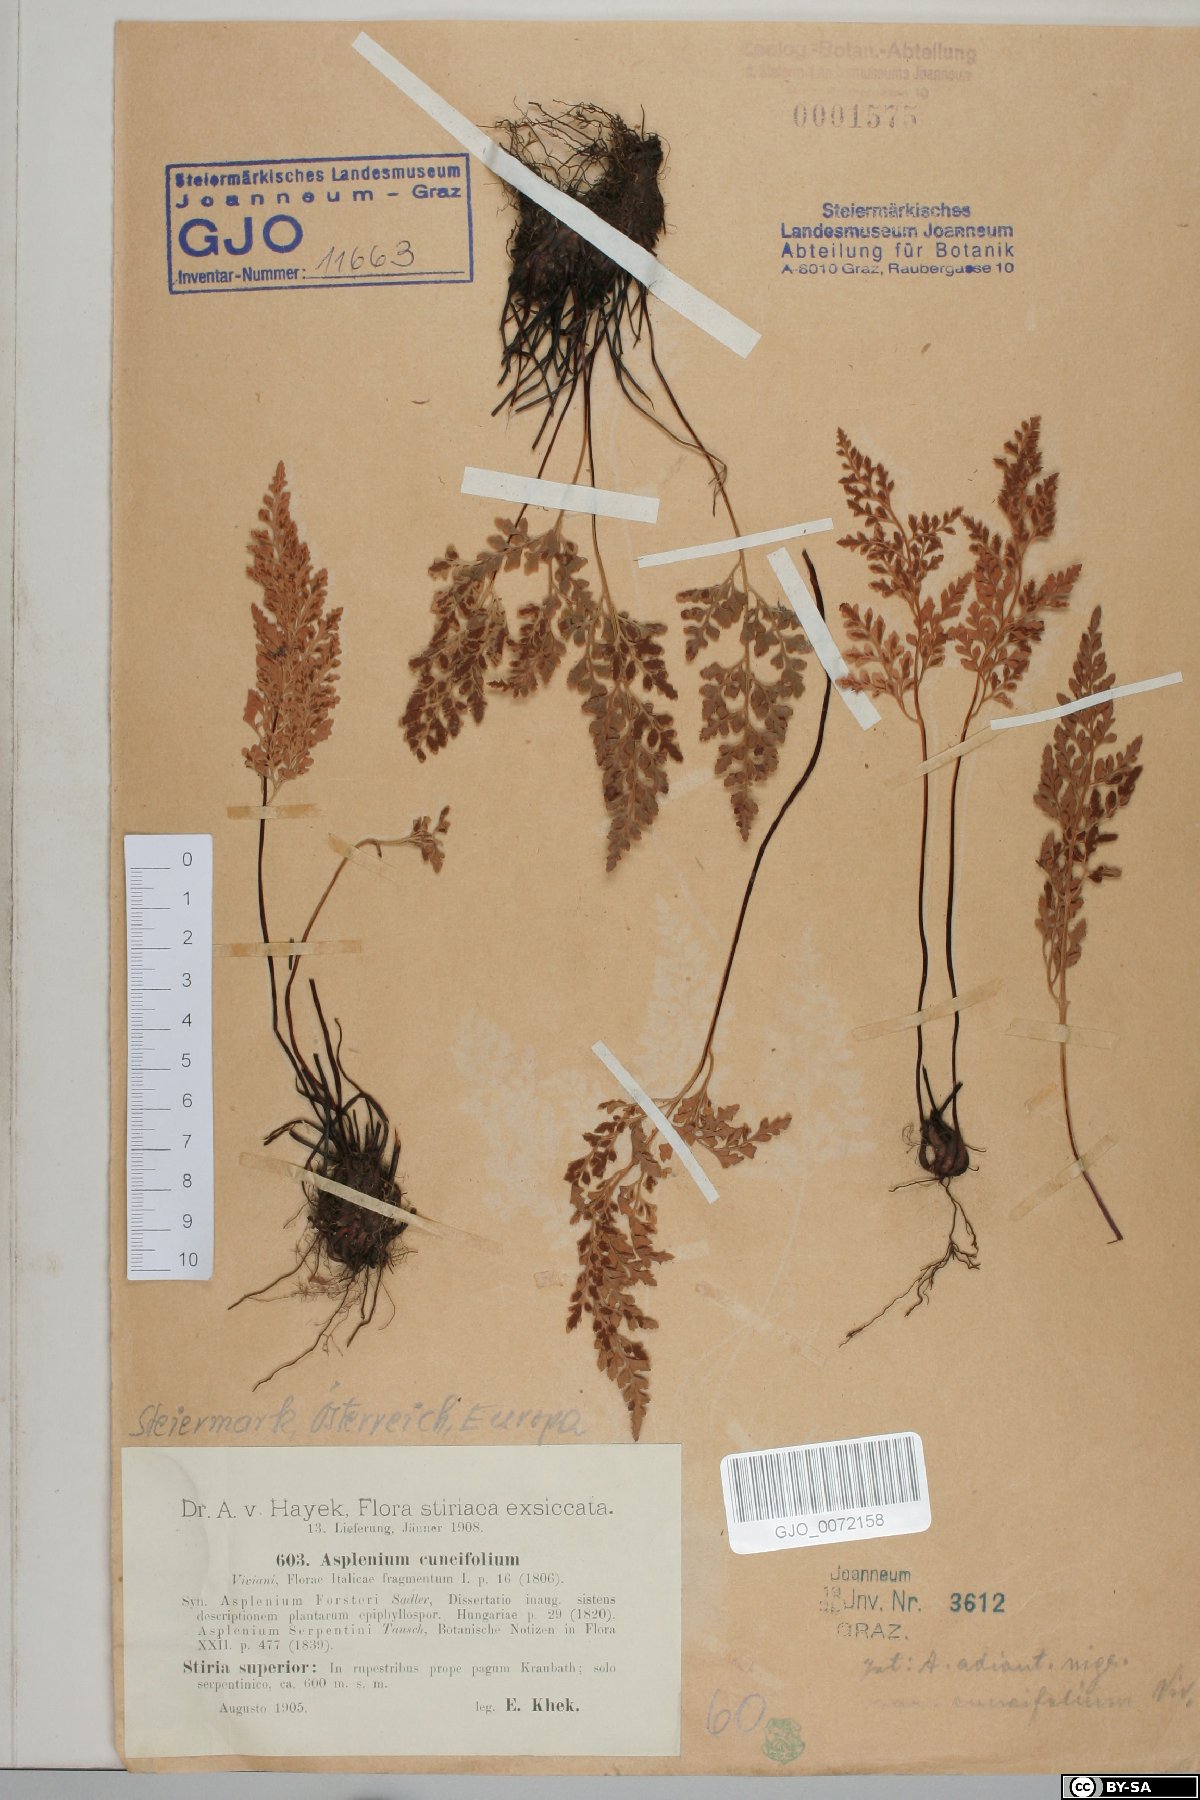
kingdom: Plantae
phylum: Tracheophyta
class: Polypodiopsida
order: Polypodiales
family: Aspleniaceae
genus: Asplenium
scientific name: Asplenium cuneifolium
